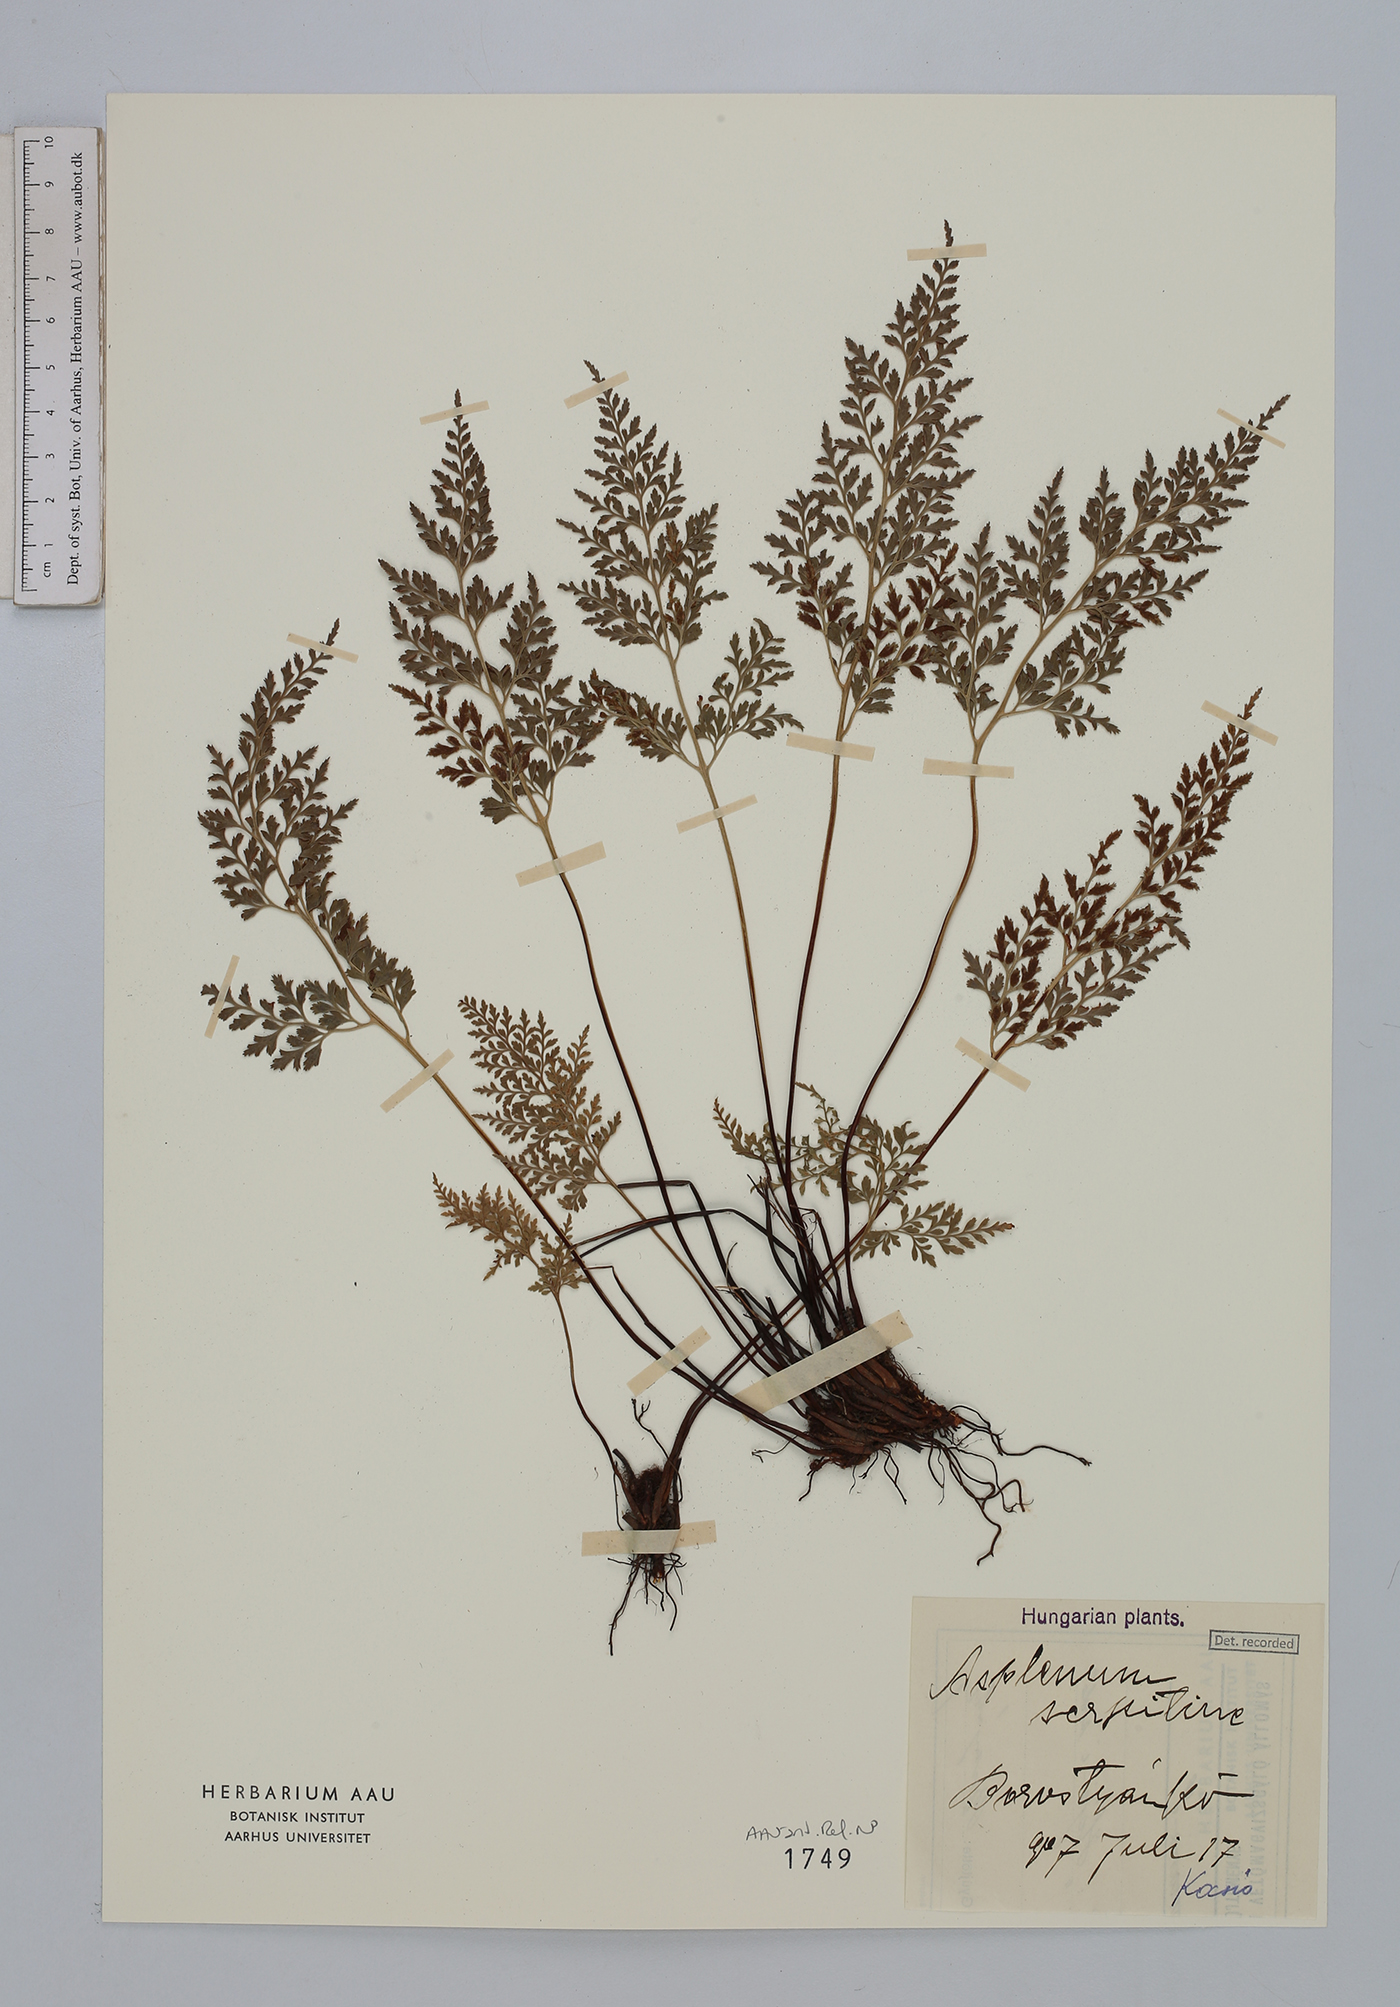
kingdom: Plantae
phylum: Tracheophyta
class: Polypodiopsida
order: Polypodiales
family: Aspleniaceae
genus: Asplenium
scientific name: Asplenium cuneifolium
